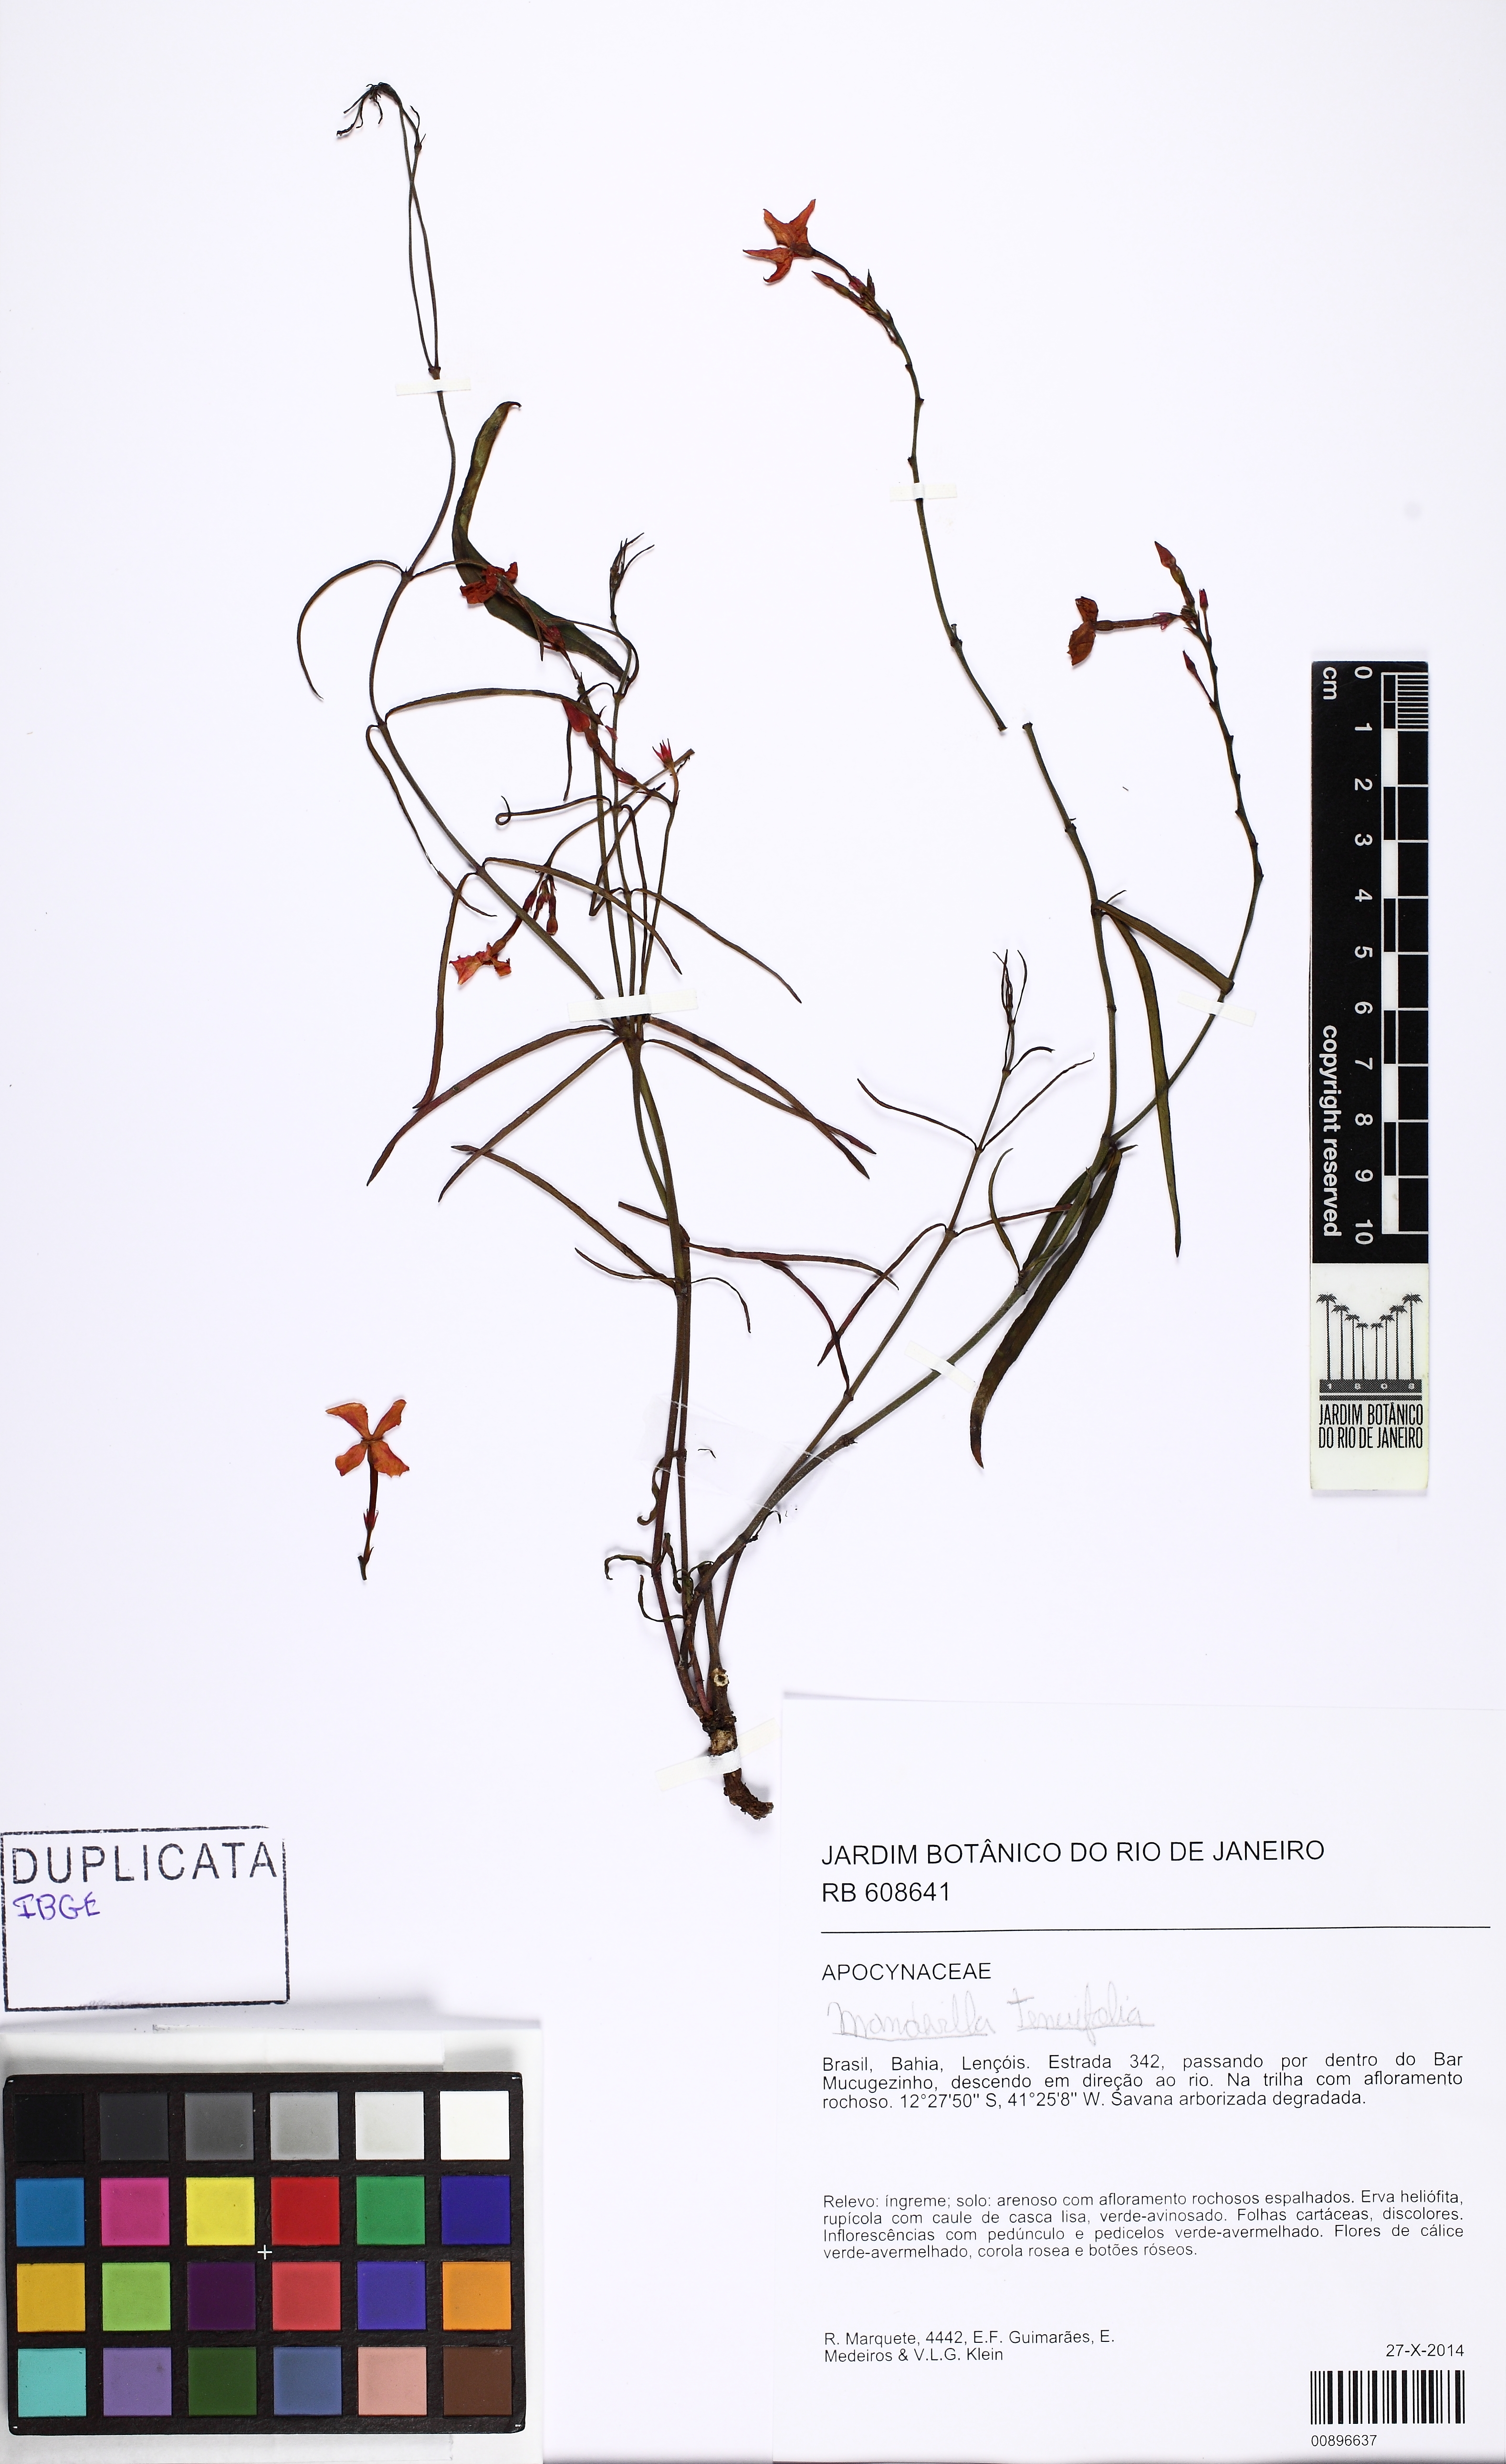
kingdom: Plantae
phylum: Tracheophyta
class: Magnoliopsida
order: Gentianales
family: Apocynaceae
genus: Mandevilla
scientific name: Mandevilla tenuifolia
